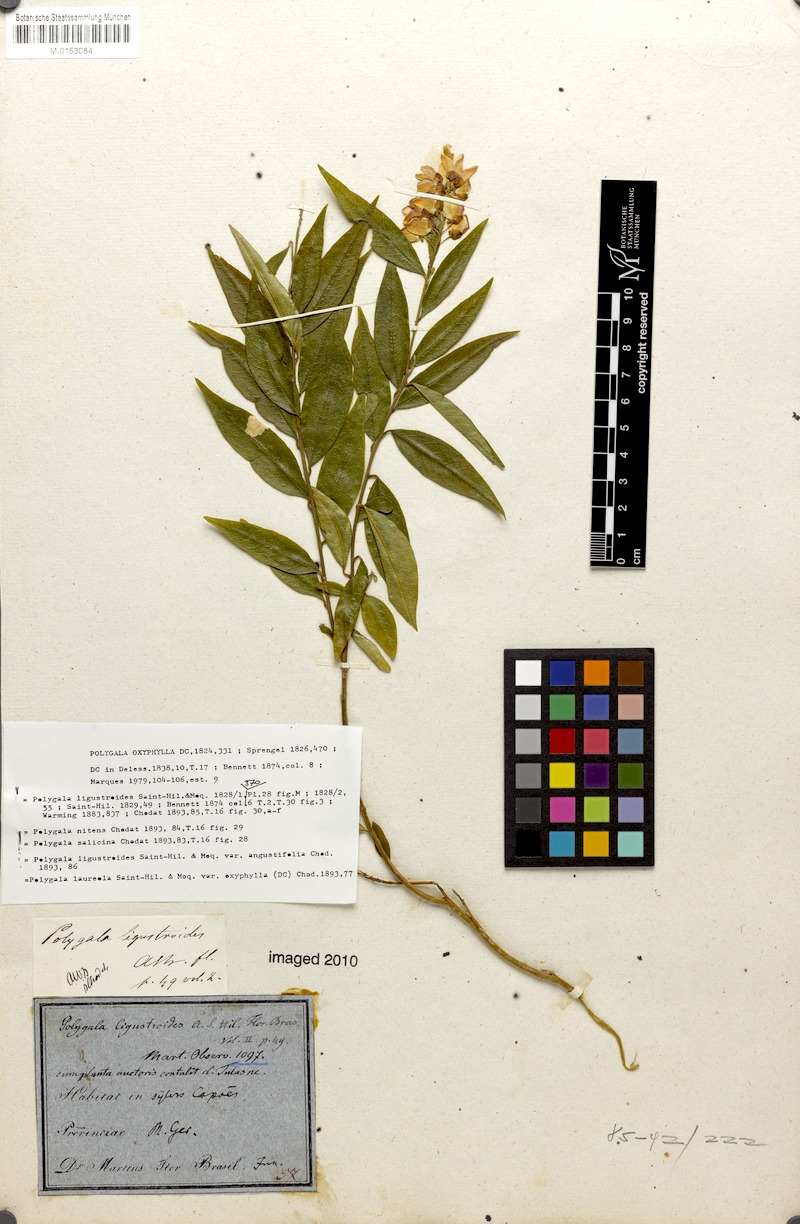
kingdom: Plantae
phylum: Tracheophyta
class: Magnoliopsida
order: Fabales
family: Polygalaceae
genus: Caamembeca
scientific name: Caamembeca oxyphylla
